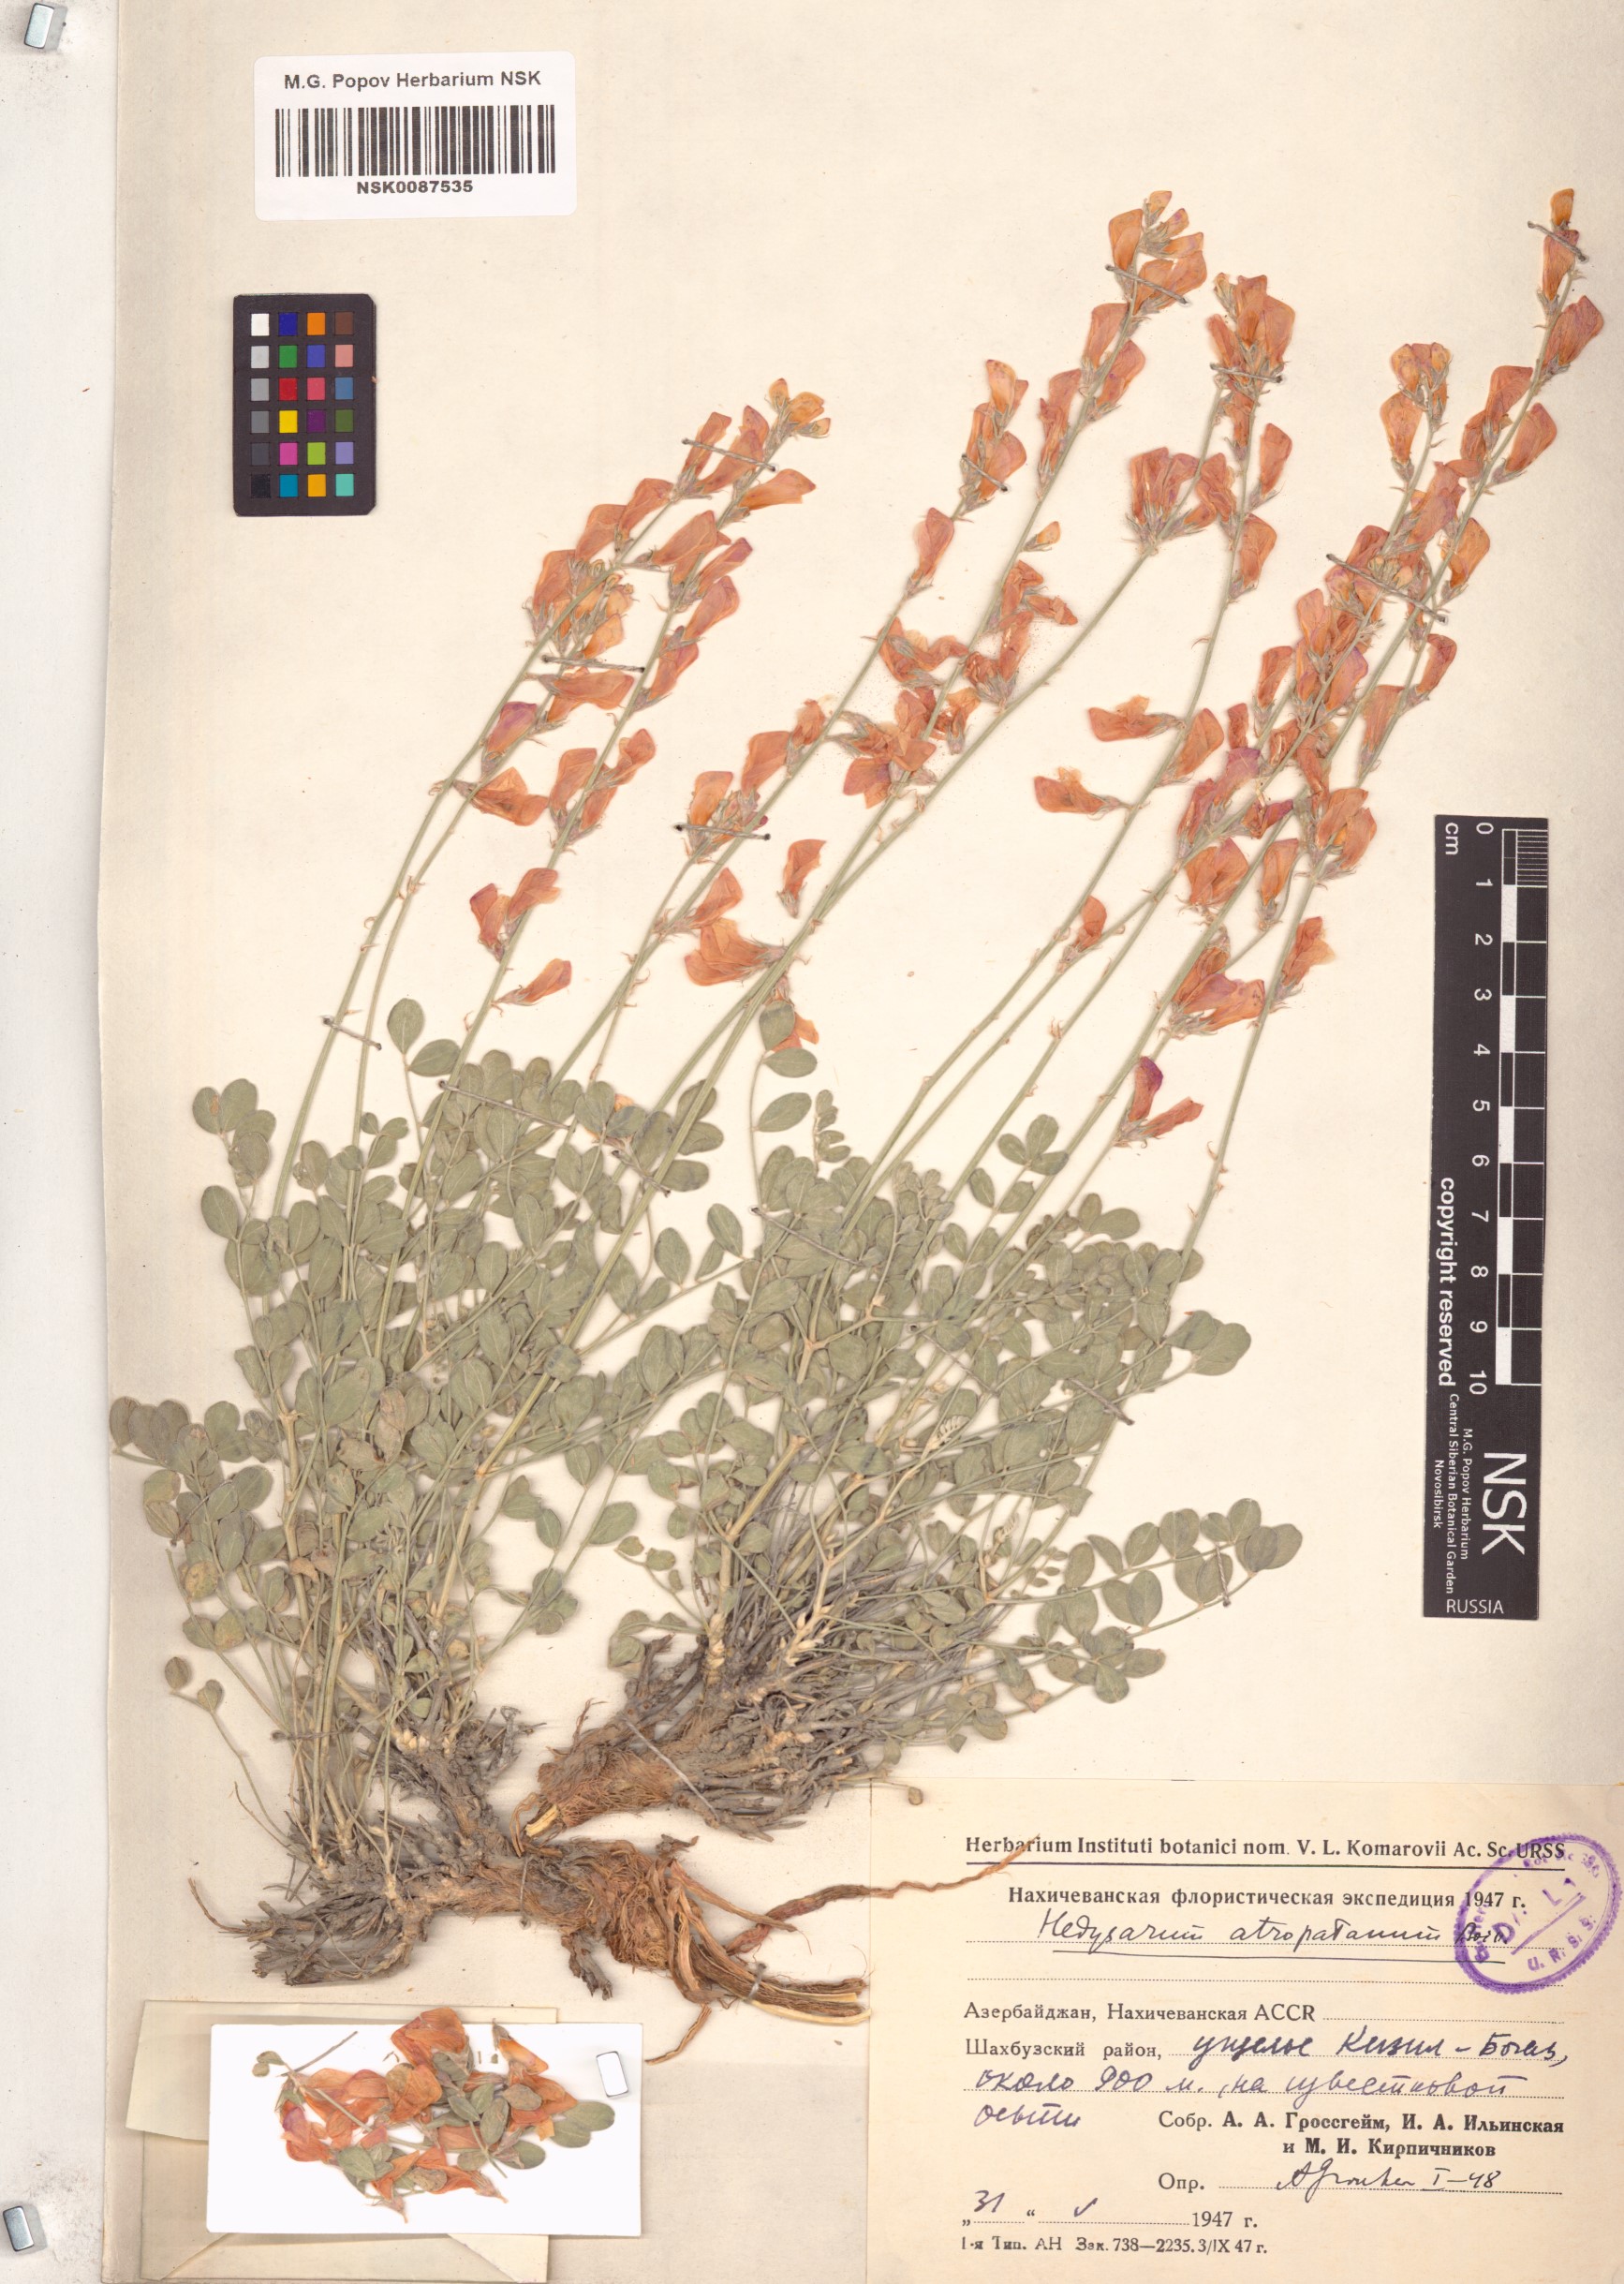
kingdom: Plantae
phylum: Tracheophyta
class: Magnoliopsida
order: Fabales
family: Fabaceae
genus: Hedysarum
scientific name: Hedysarum atropatanum
